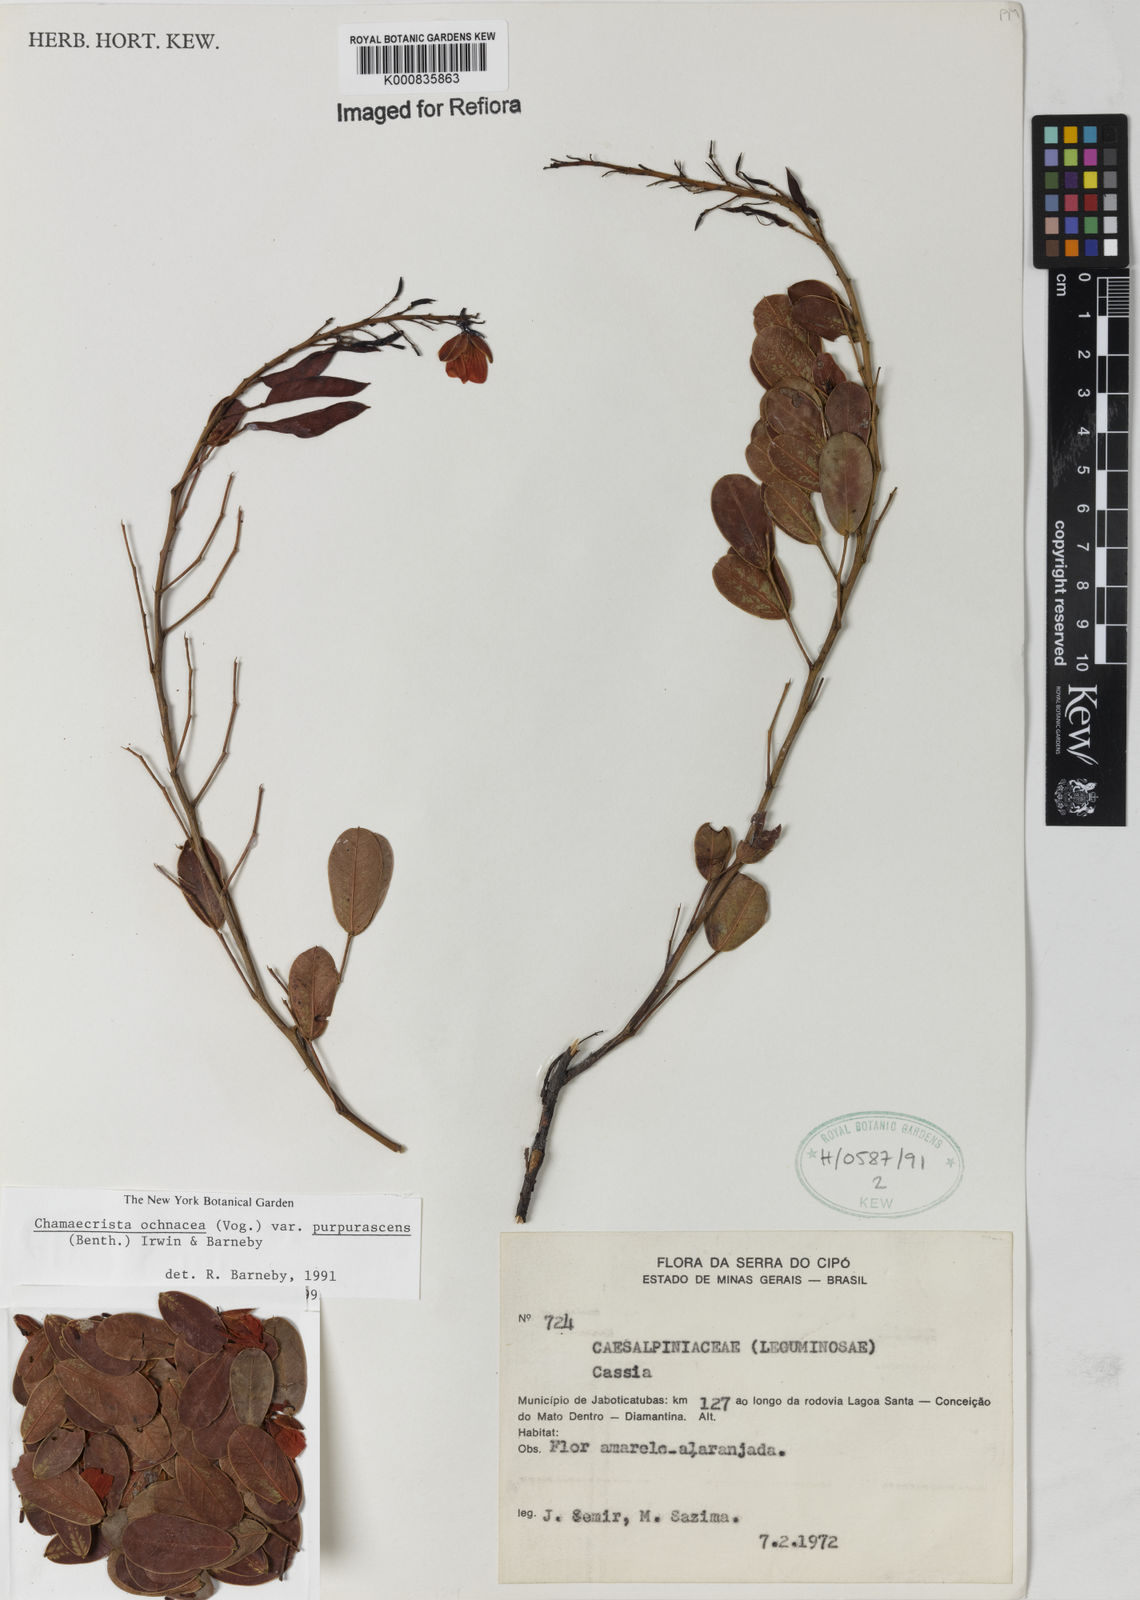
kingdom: Plantae
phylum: Tracheophyta
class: Magnoliopsida
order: Fabales
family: Fabaceae
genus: Chamaecrista
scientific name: Chamaecrista ochnacea
